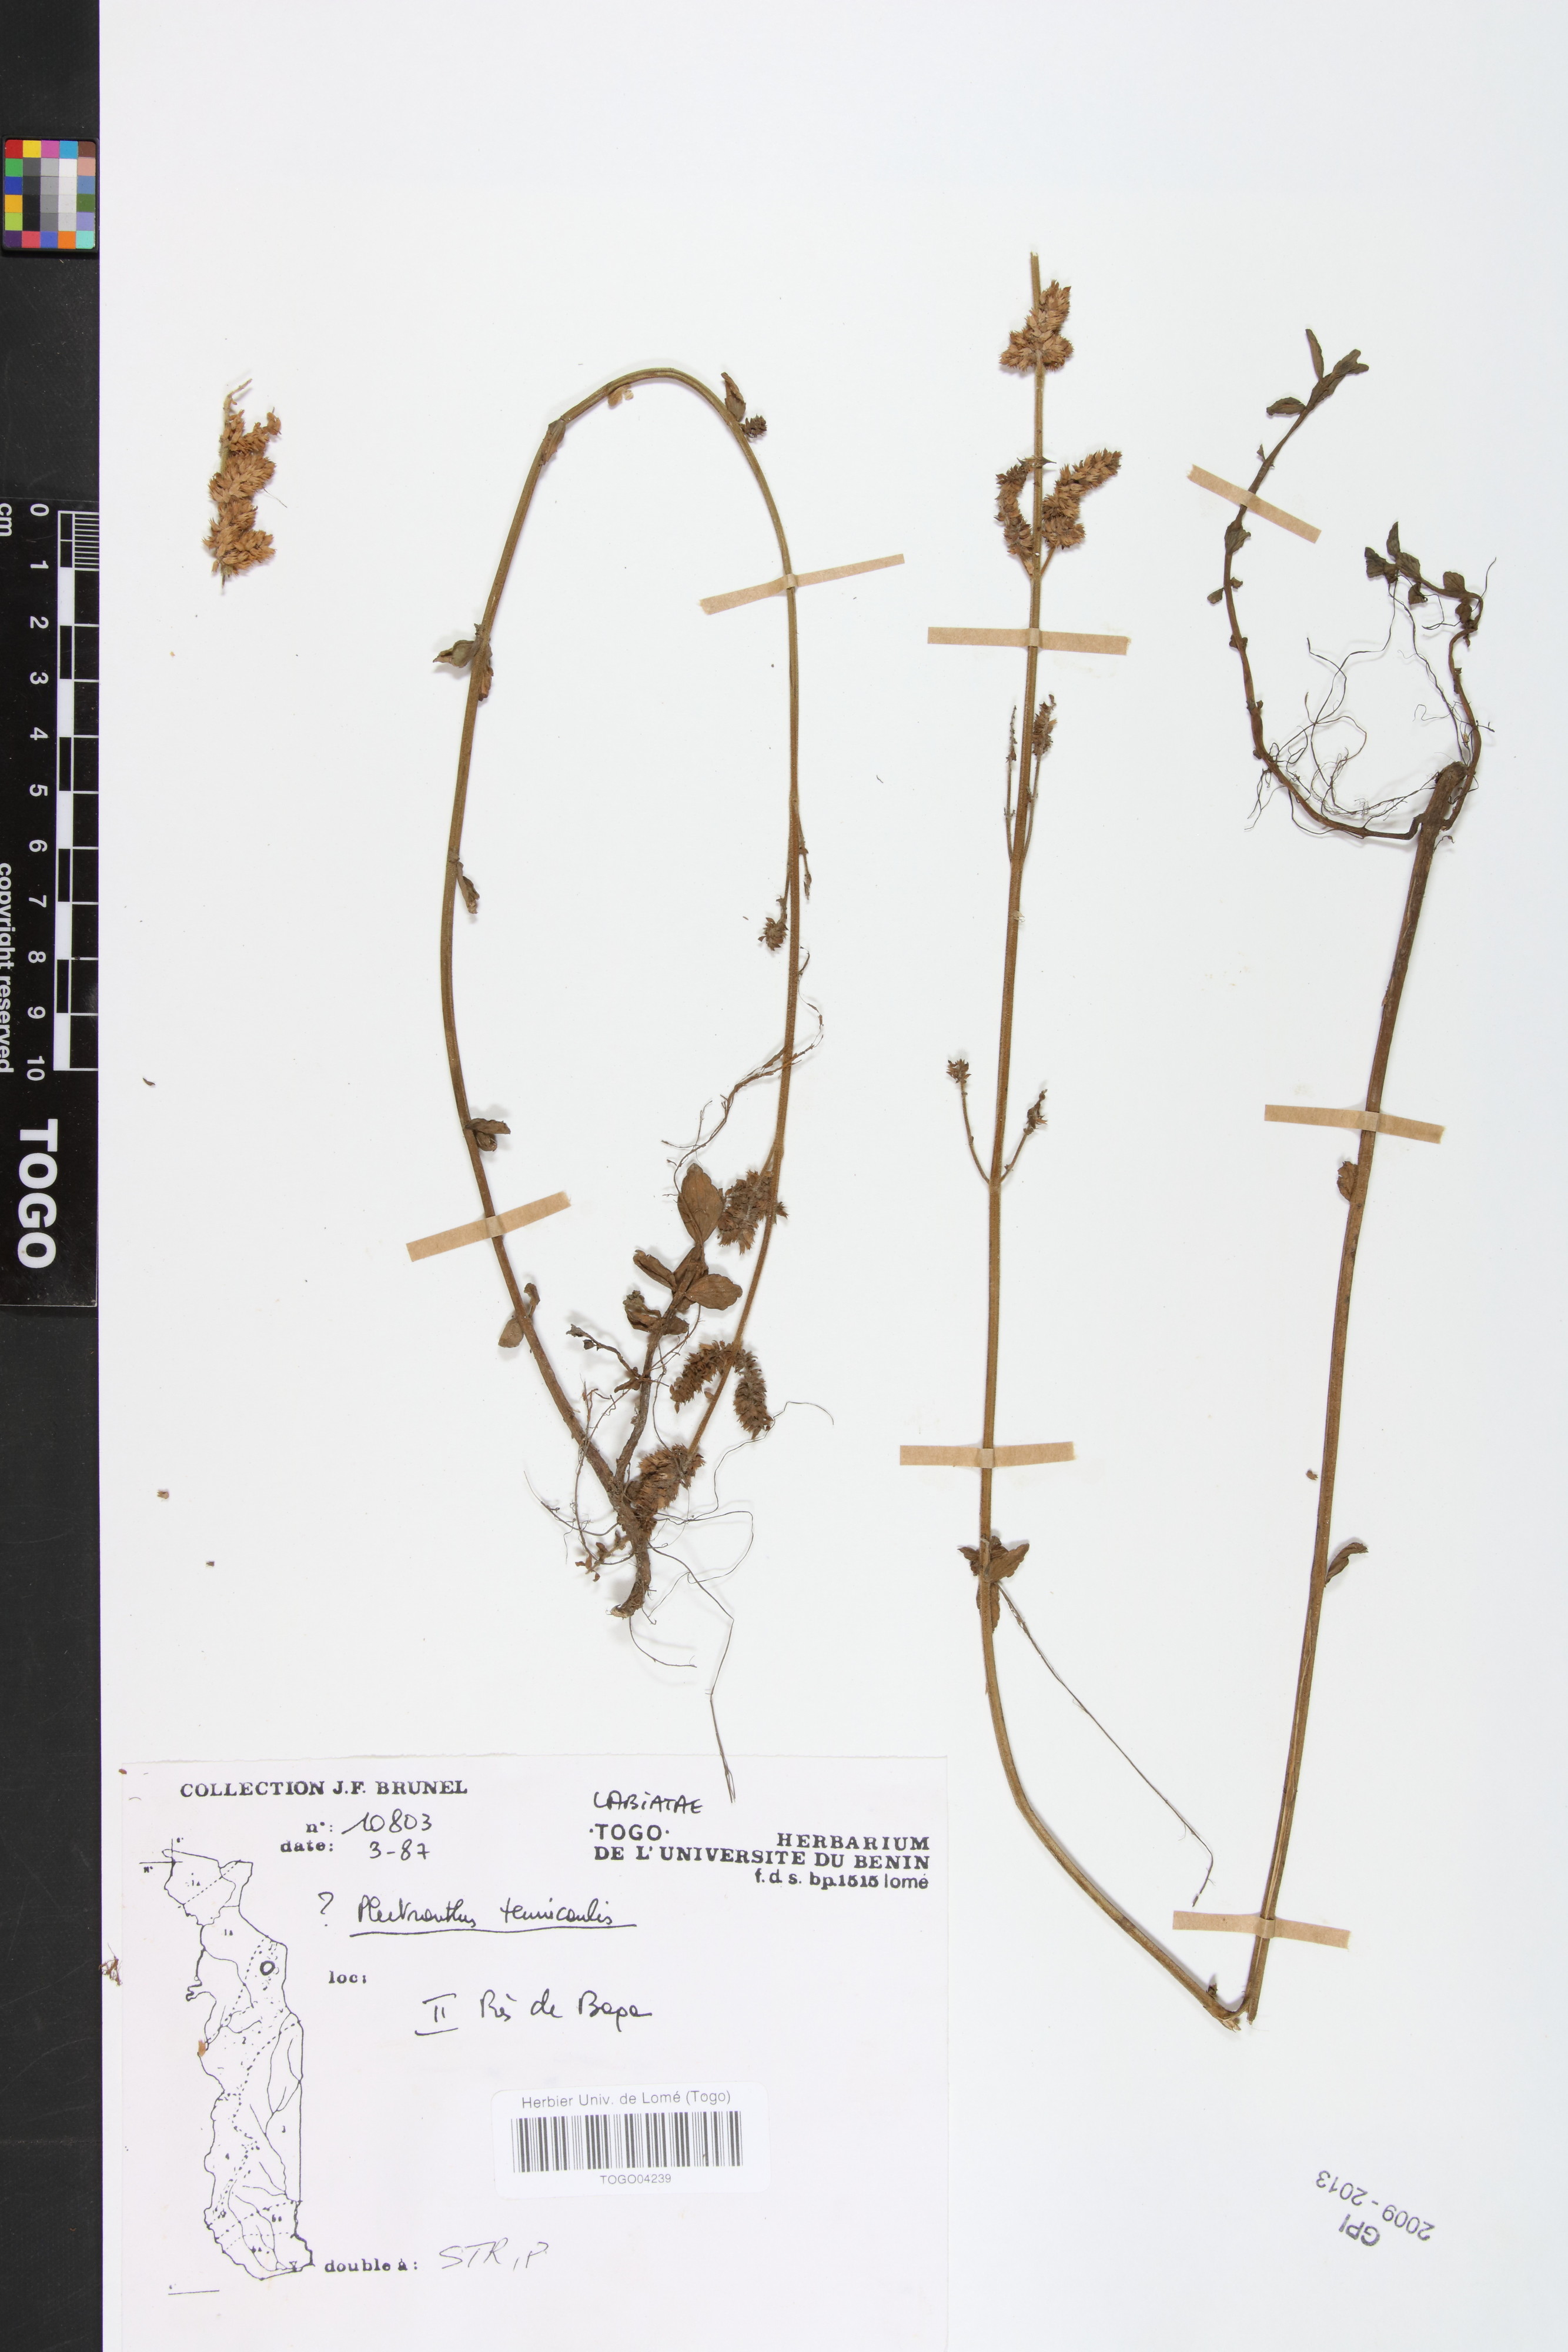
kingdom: Plantae
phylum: Tracheophyta
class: Magnoliopsida
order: Lamiales
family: Lamiaceae
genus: Coleus
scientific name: Coleus tenuicaulis
